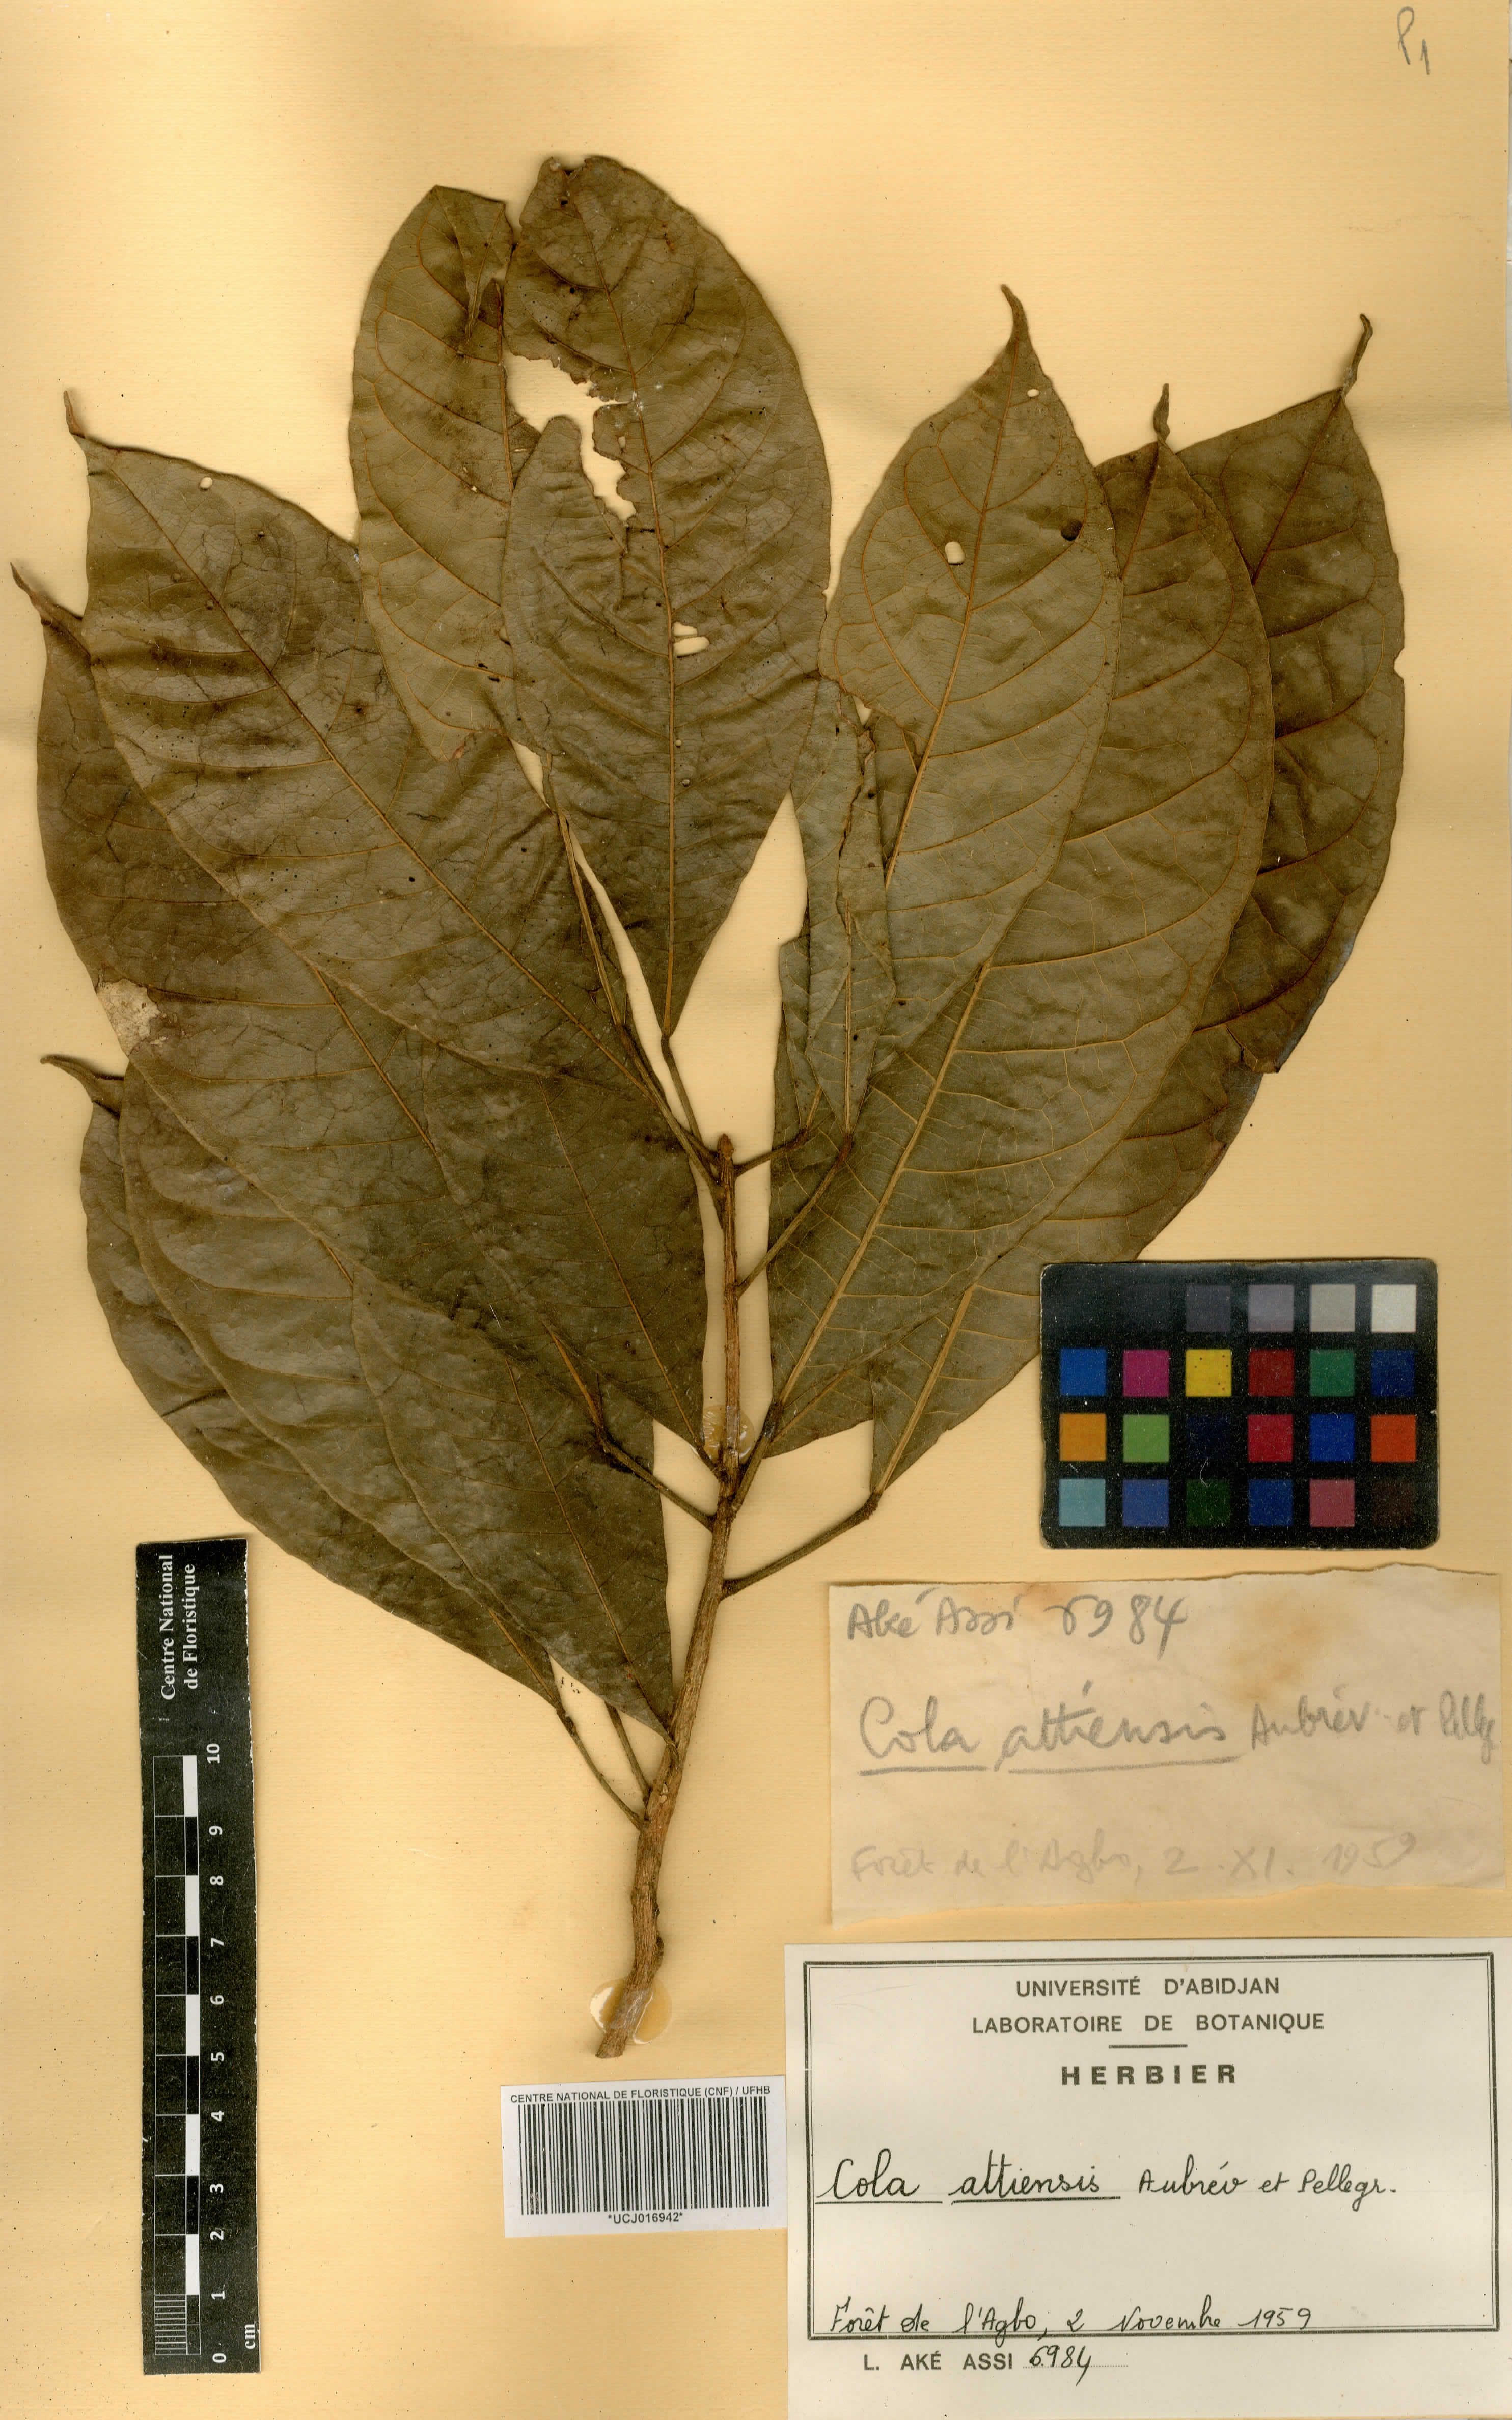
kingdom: Plantae
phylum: Tracheophyta
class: Magnoliopsida
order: Malvales
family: Malvaceae
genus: Cola
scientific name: Cola attiensis
